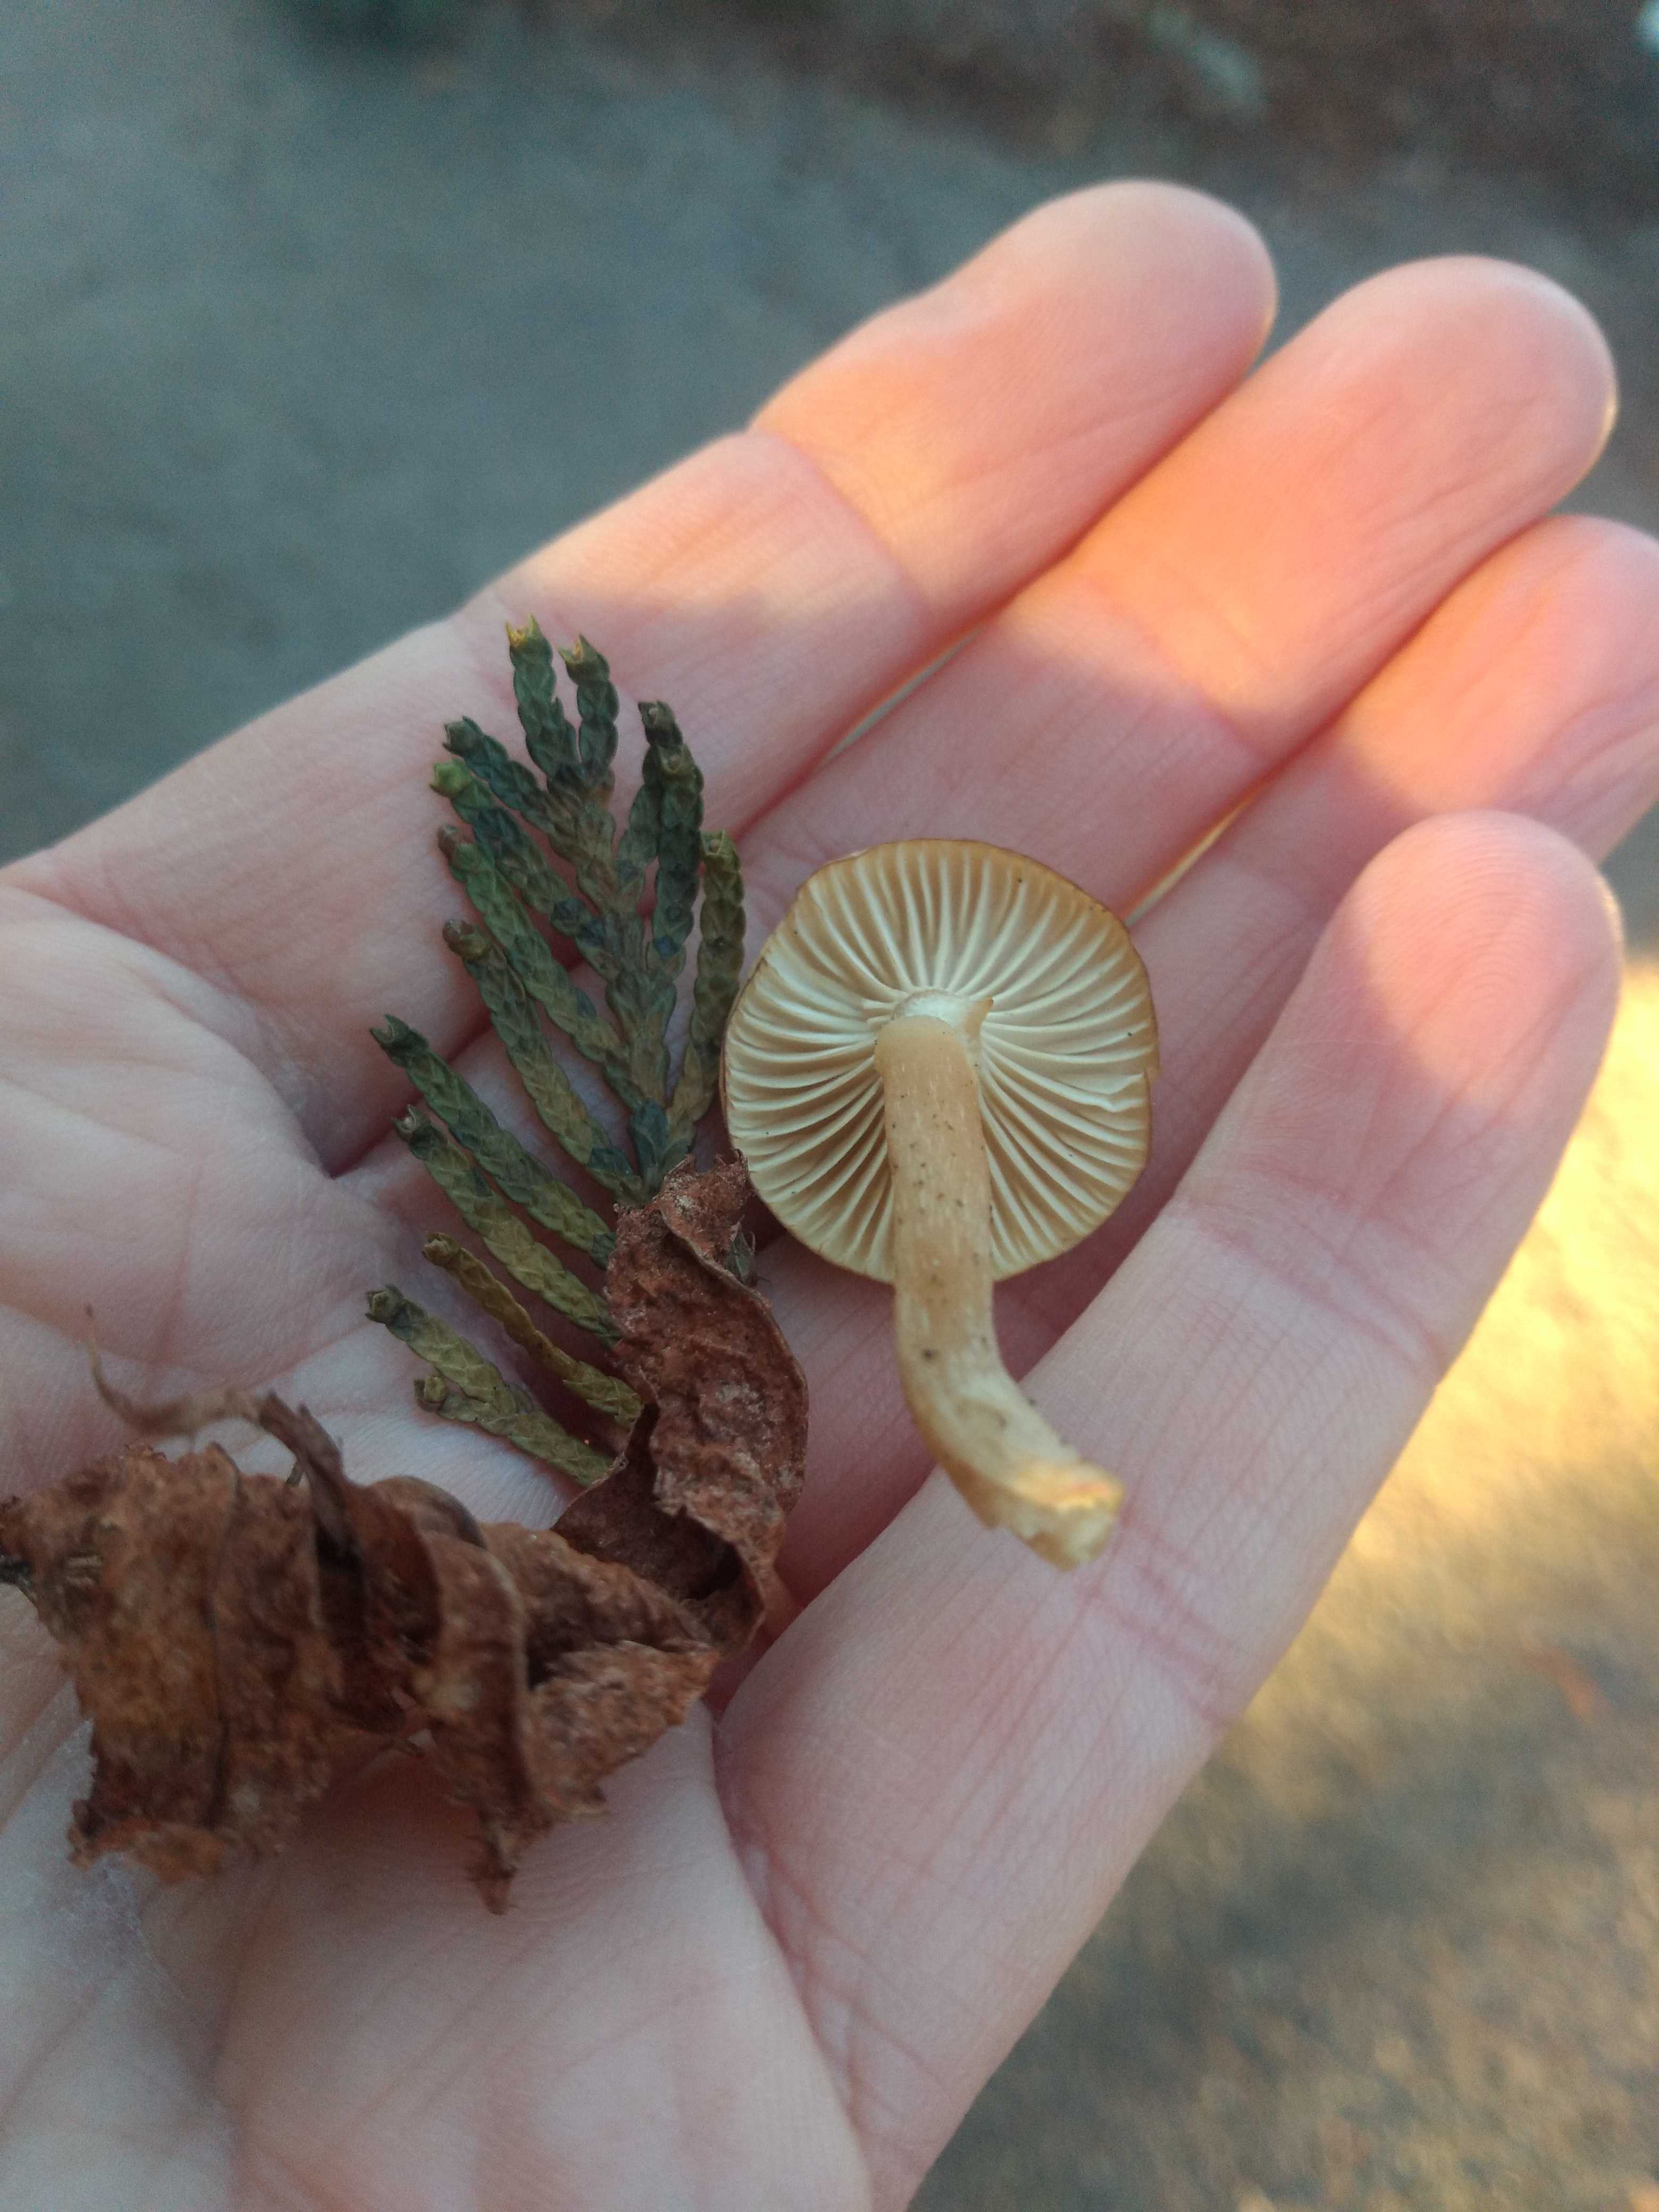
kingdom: Fungi
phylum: Basidiomycota
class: Agaricomycetes
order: Agaricales
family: Tricholomataceae
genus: Clitocybe
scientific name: Clitocybe fragrans
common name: vellugtende tragthat
